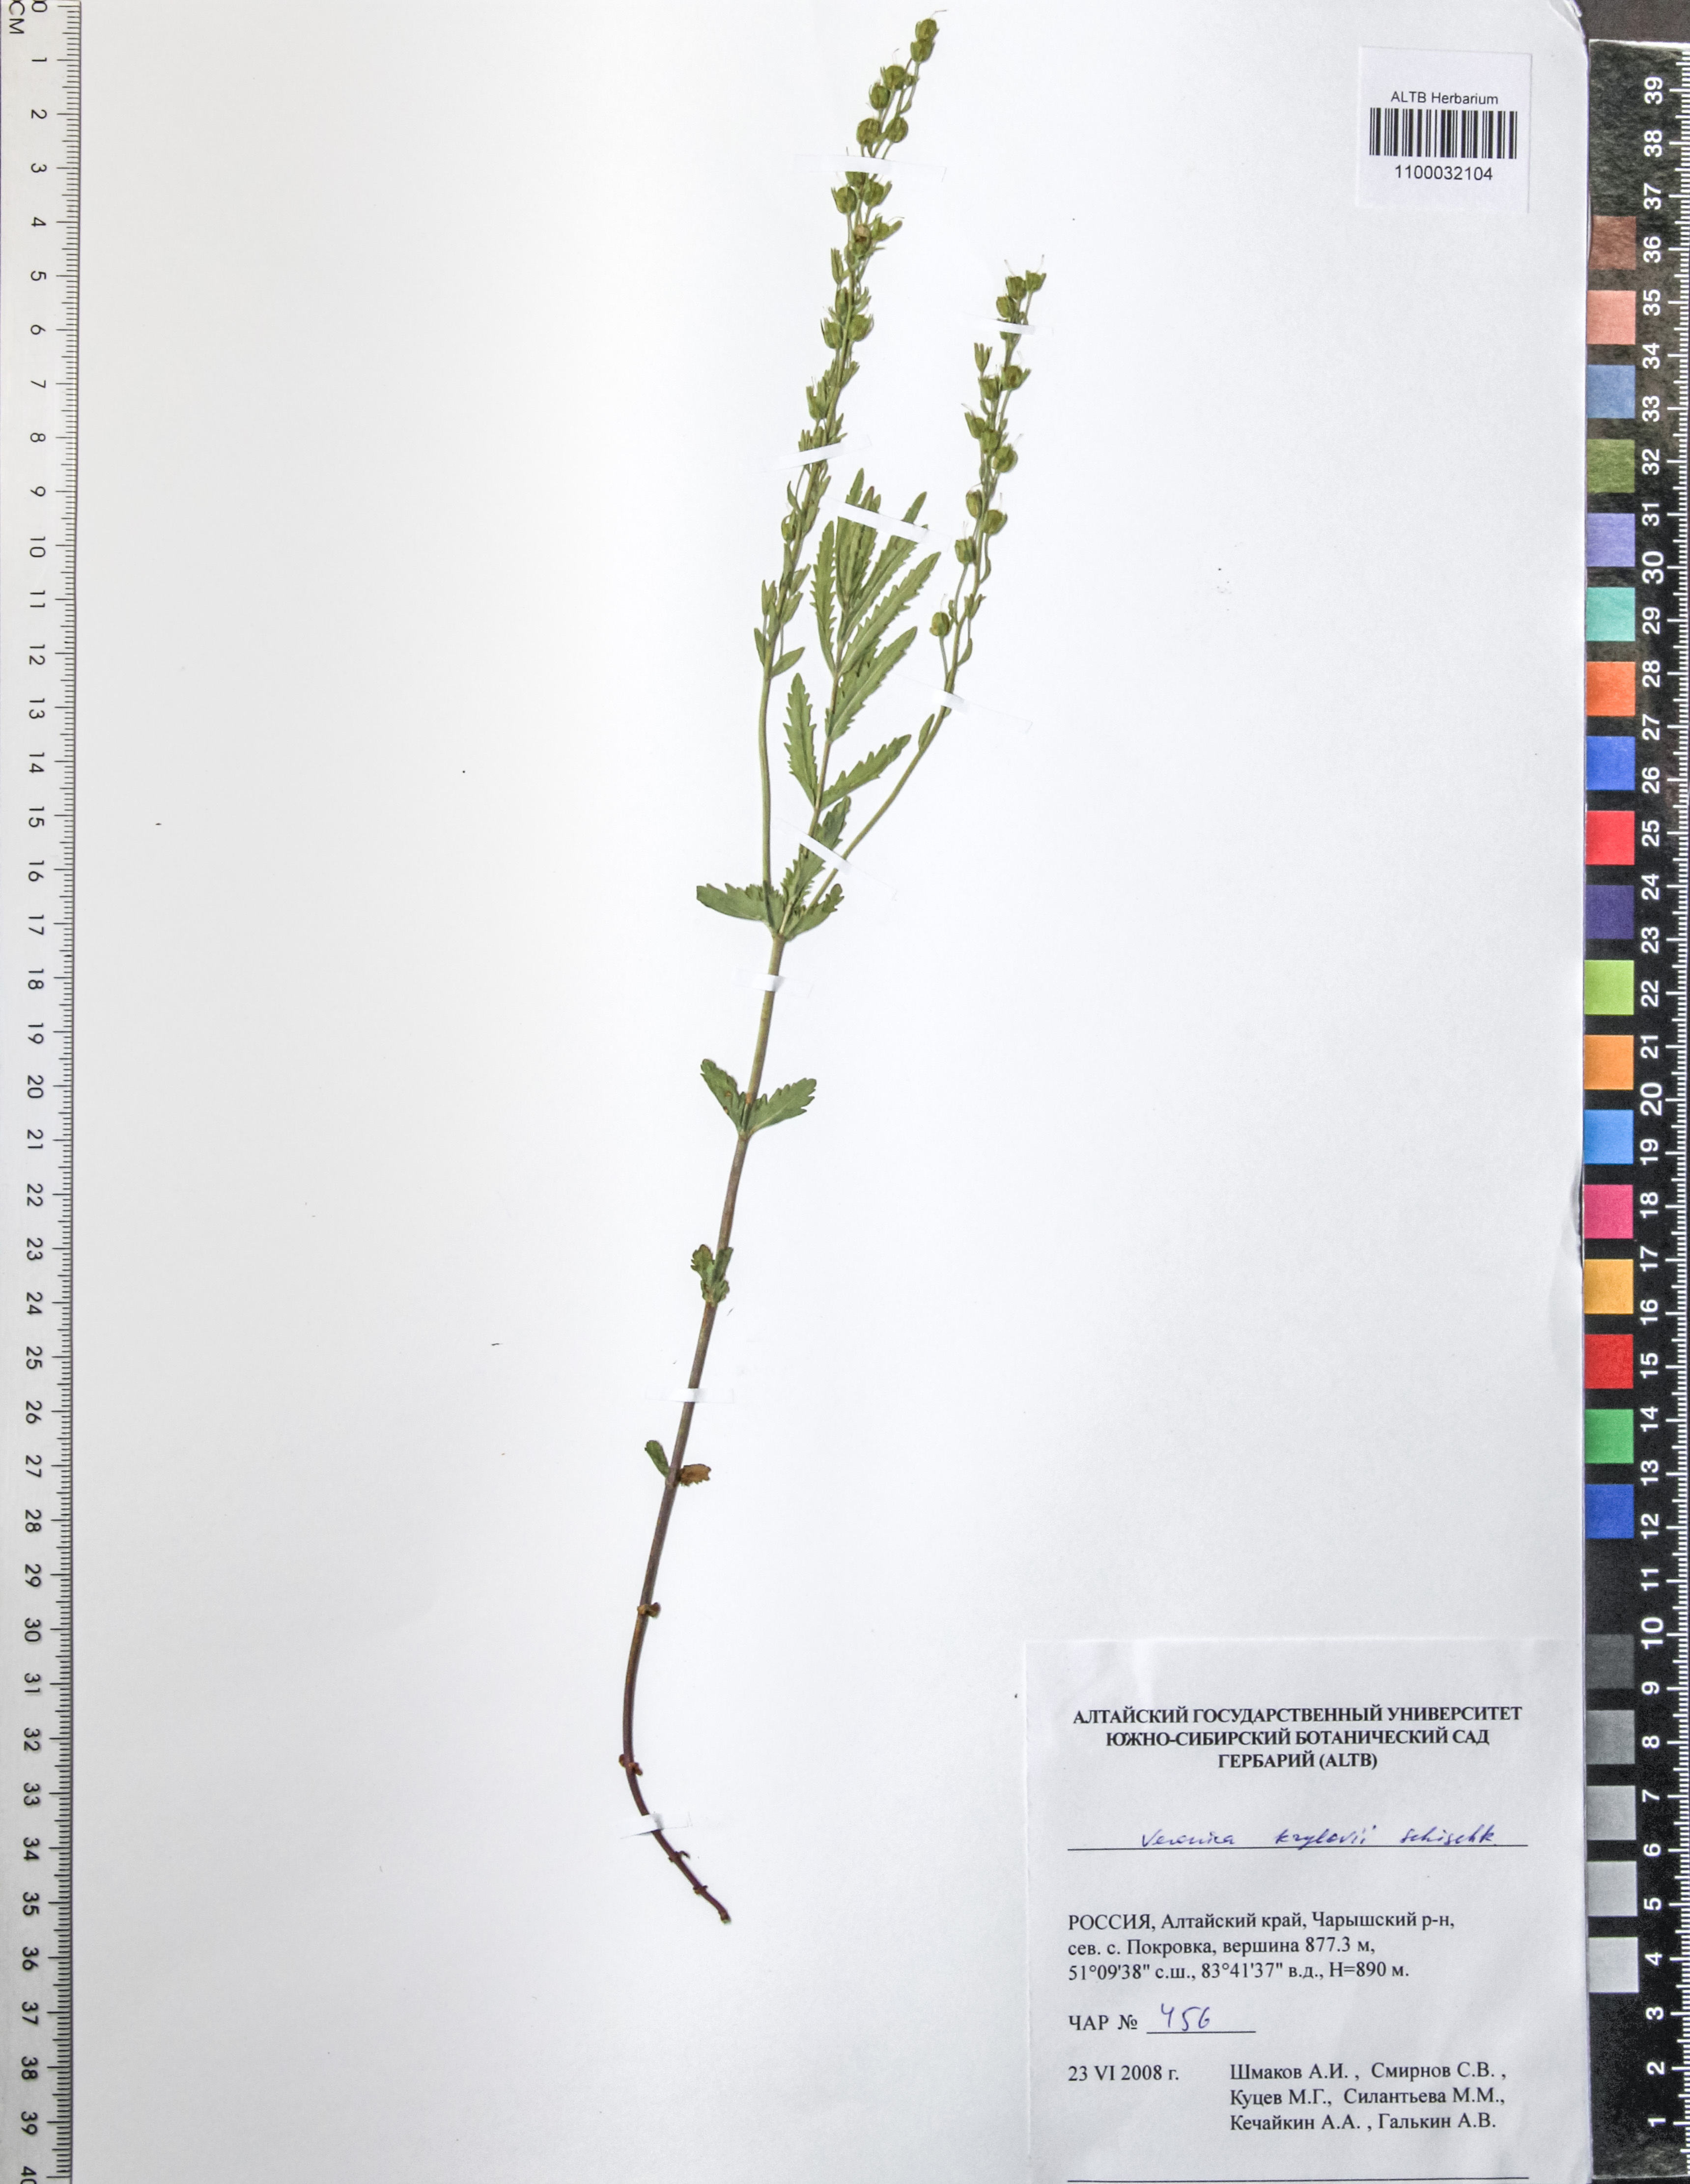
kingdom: Plantae
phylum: Tracheophyta
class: Magnoliopsida
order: Lamiales
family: Plantaginaceae
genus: Veronica
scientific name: Veronica krylovii
